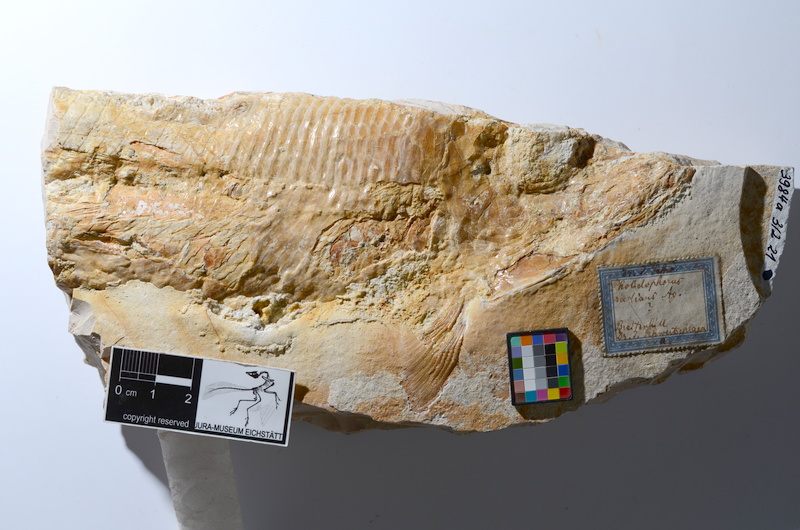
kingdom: Animalia
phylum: Chordata
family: Ankylophoridae
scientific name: Ankylophoridae
